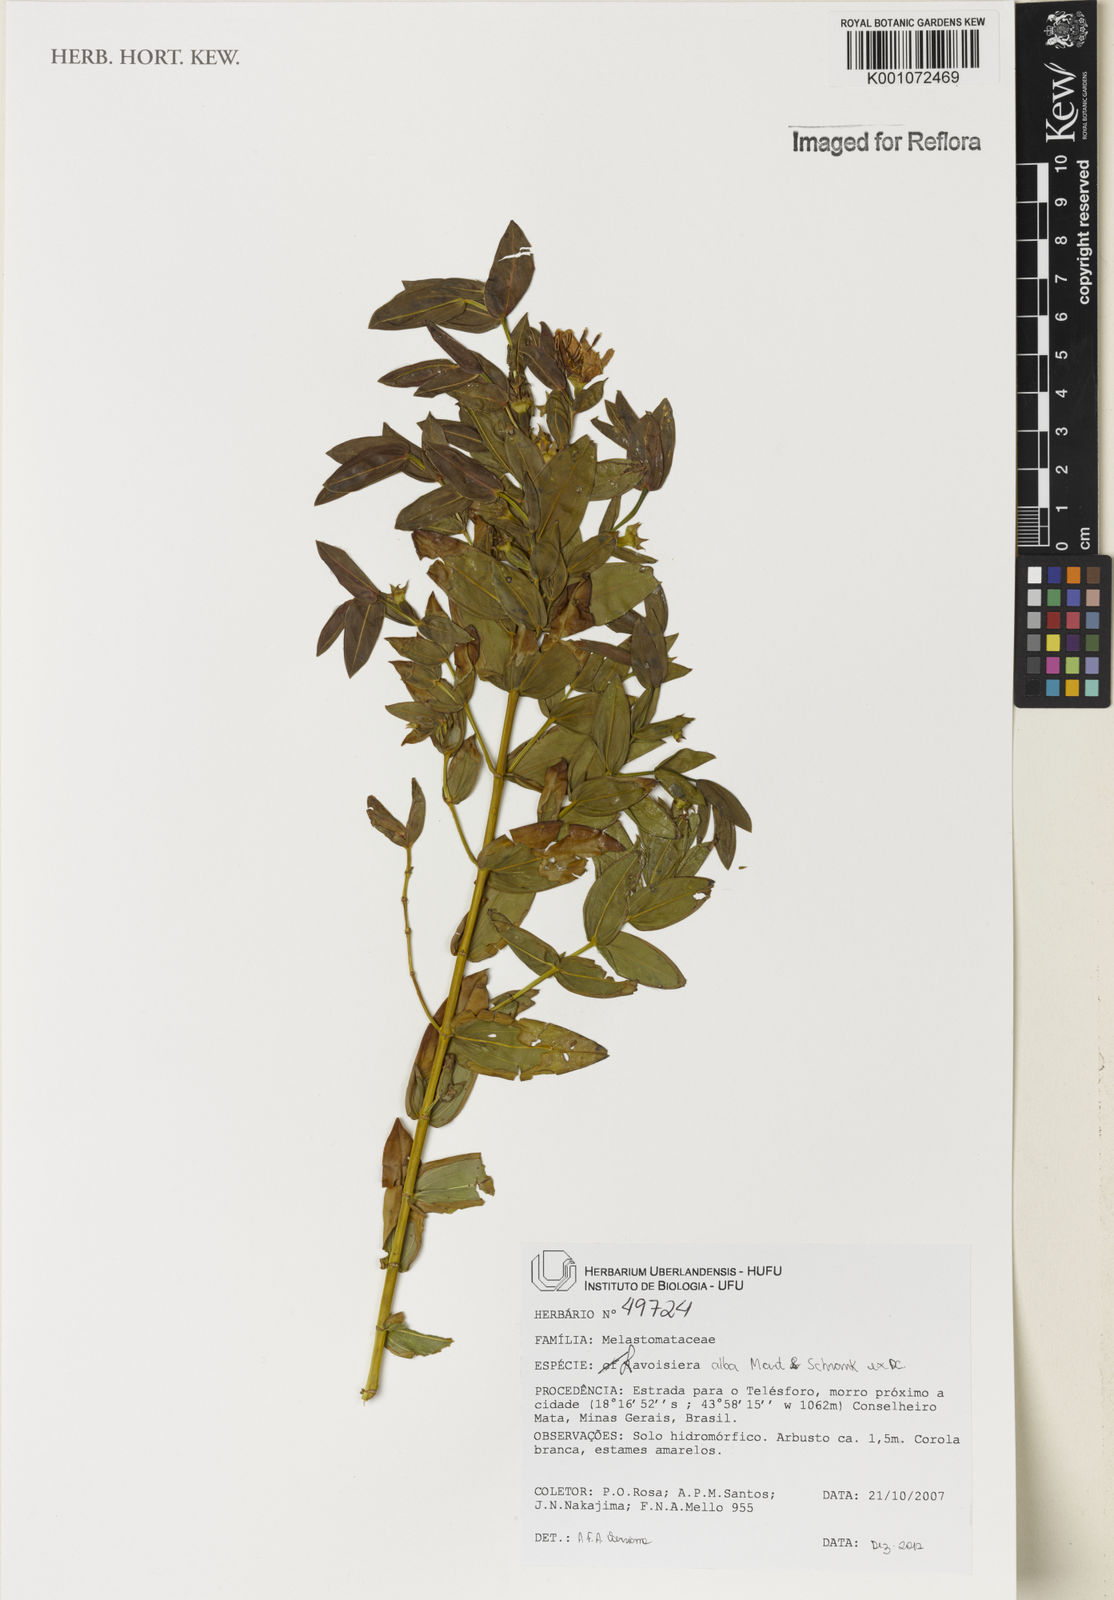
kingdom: Plantae
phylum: Tracheophyta
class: Magnoliopsida
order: Myrtales
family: Melastomataceae
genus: Microlicia
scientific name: Microlicia alba
